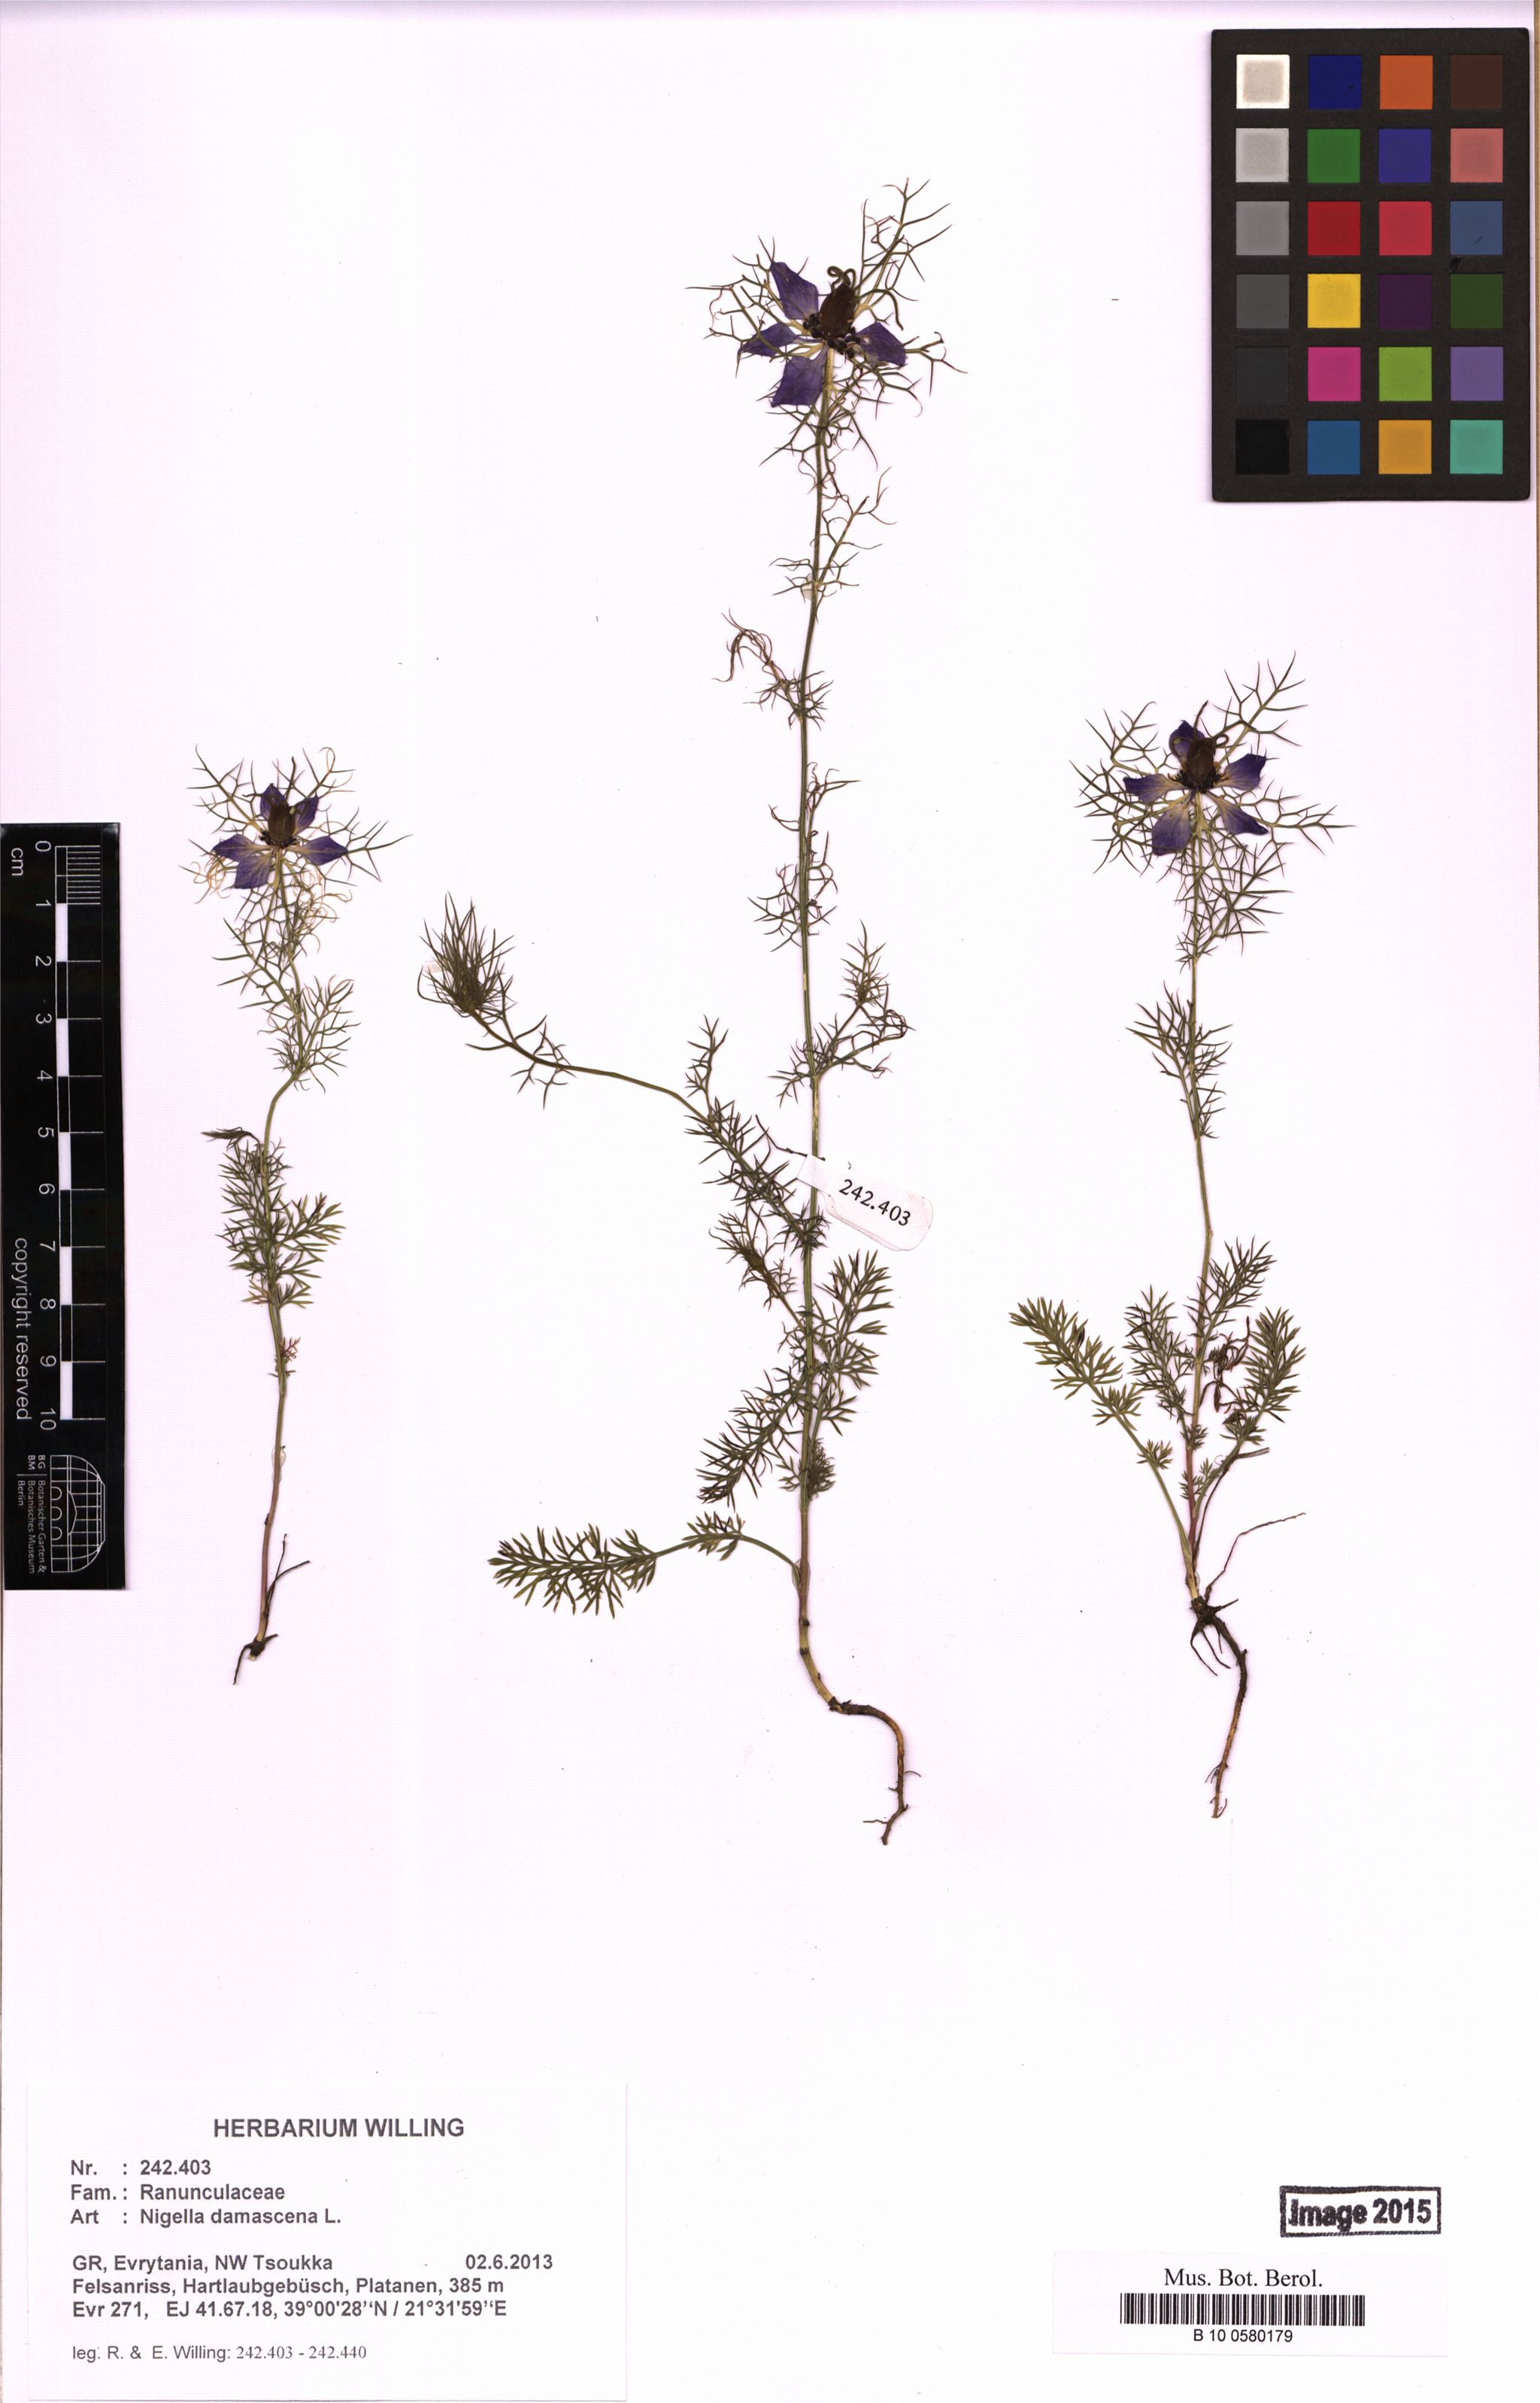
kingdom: Plantae
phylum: Tracheophyta
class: Magnoliopsida
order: Ranunculales
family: Ranunculaceae
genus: Nigella
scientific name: Nigella damascena
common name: Love-in-a-mist
